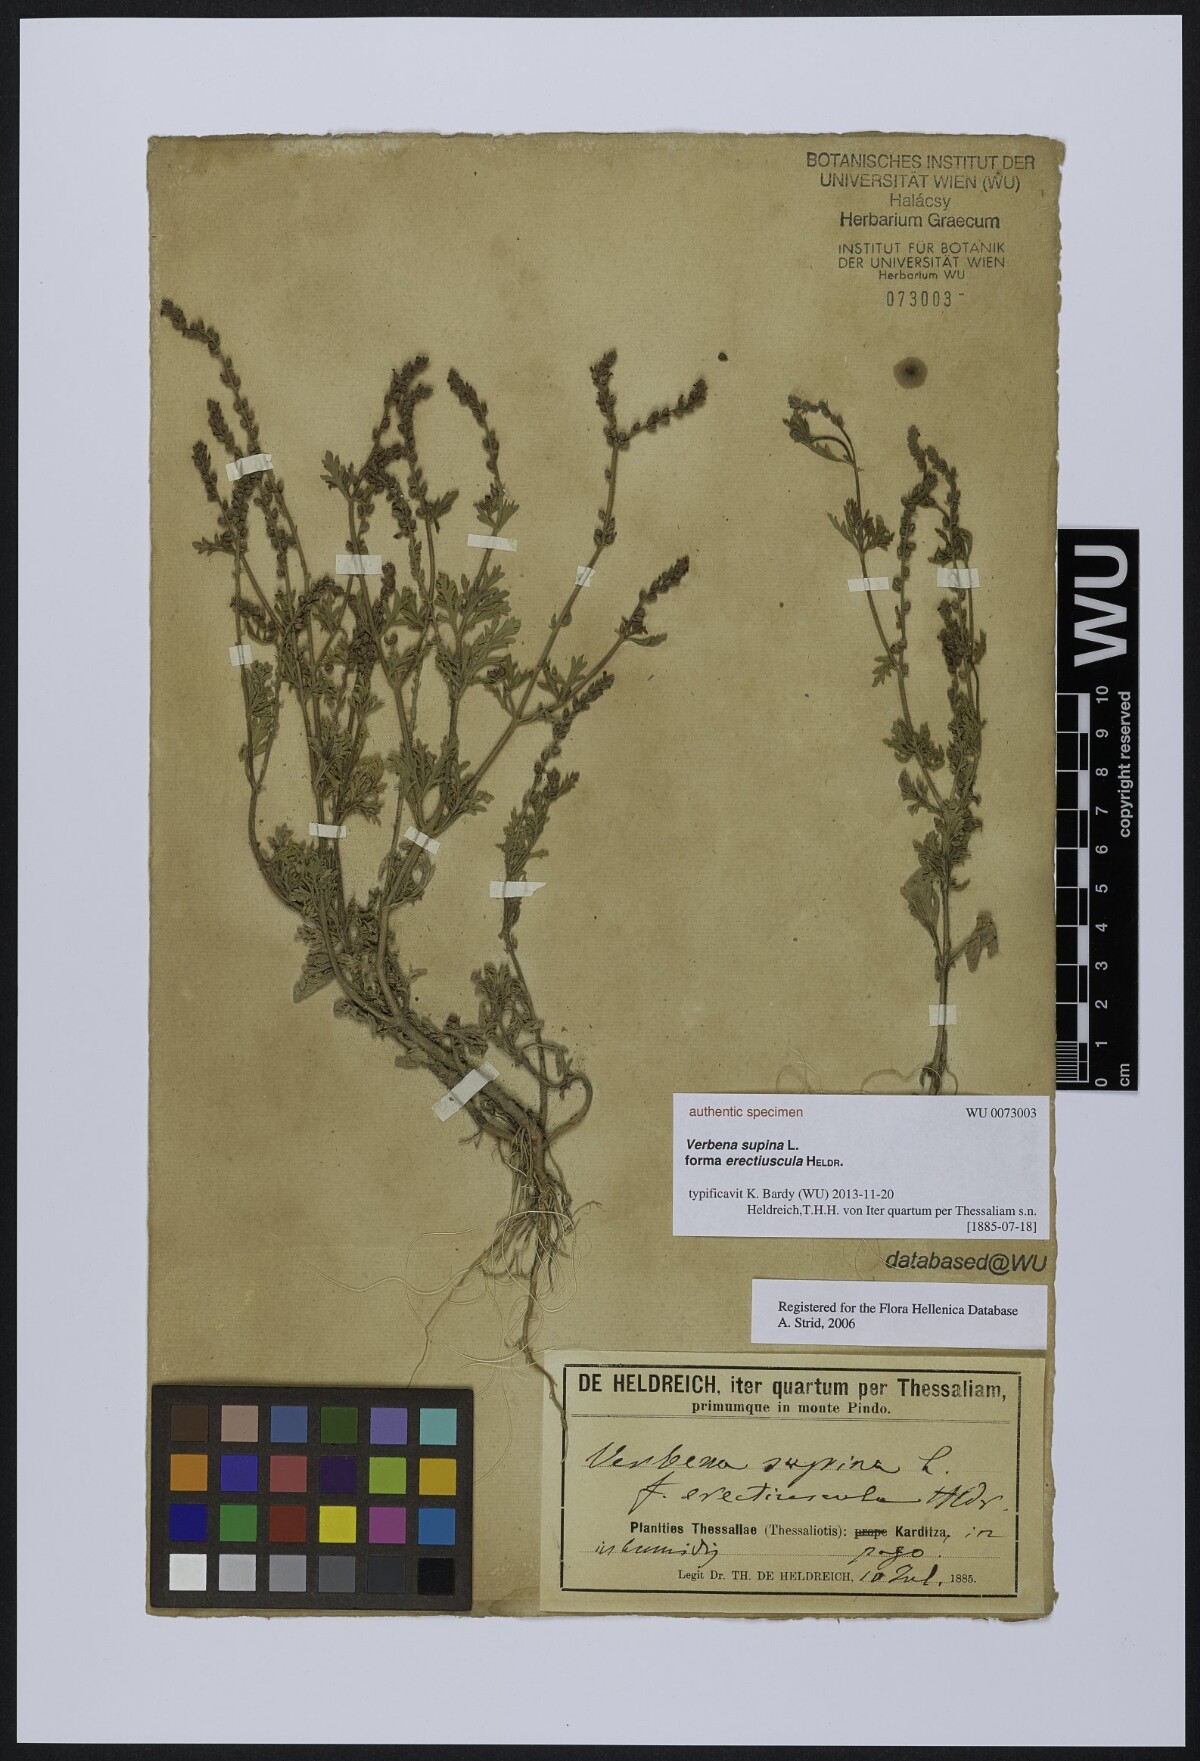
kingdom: Plantae
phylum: Tracheophyta
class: Magnoliopsida
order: Lamiales
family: Verbenaceae
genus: Verbena
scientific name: Verbena supina
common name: Trailing vervain
